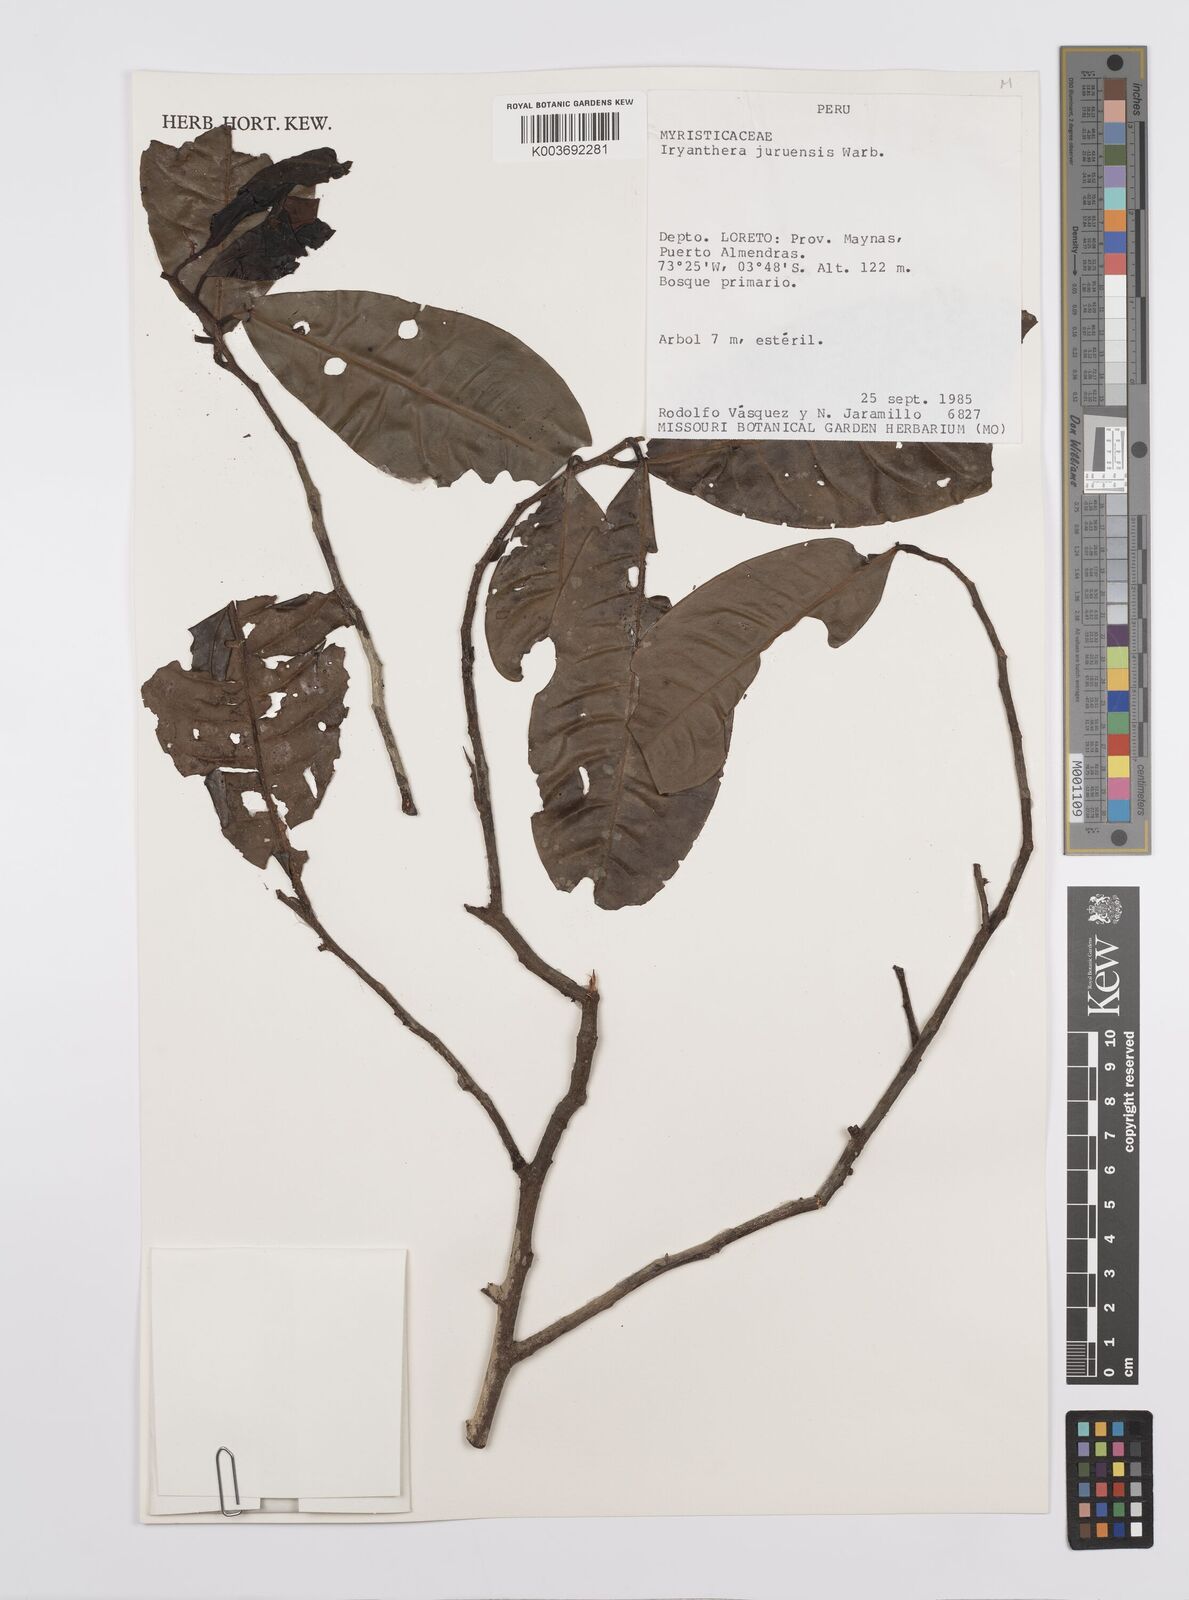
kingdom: Plantae
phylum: Tracheophyta
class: Magnoliopsida
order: Magnoliales
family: Myristicaceae
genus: Iryanthera
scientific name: Iryanthera juruensis
